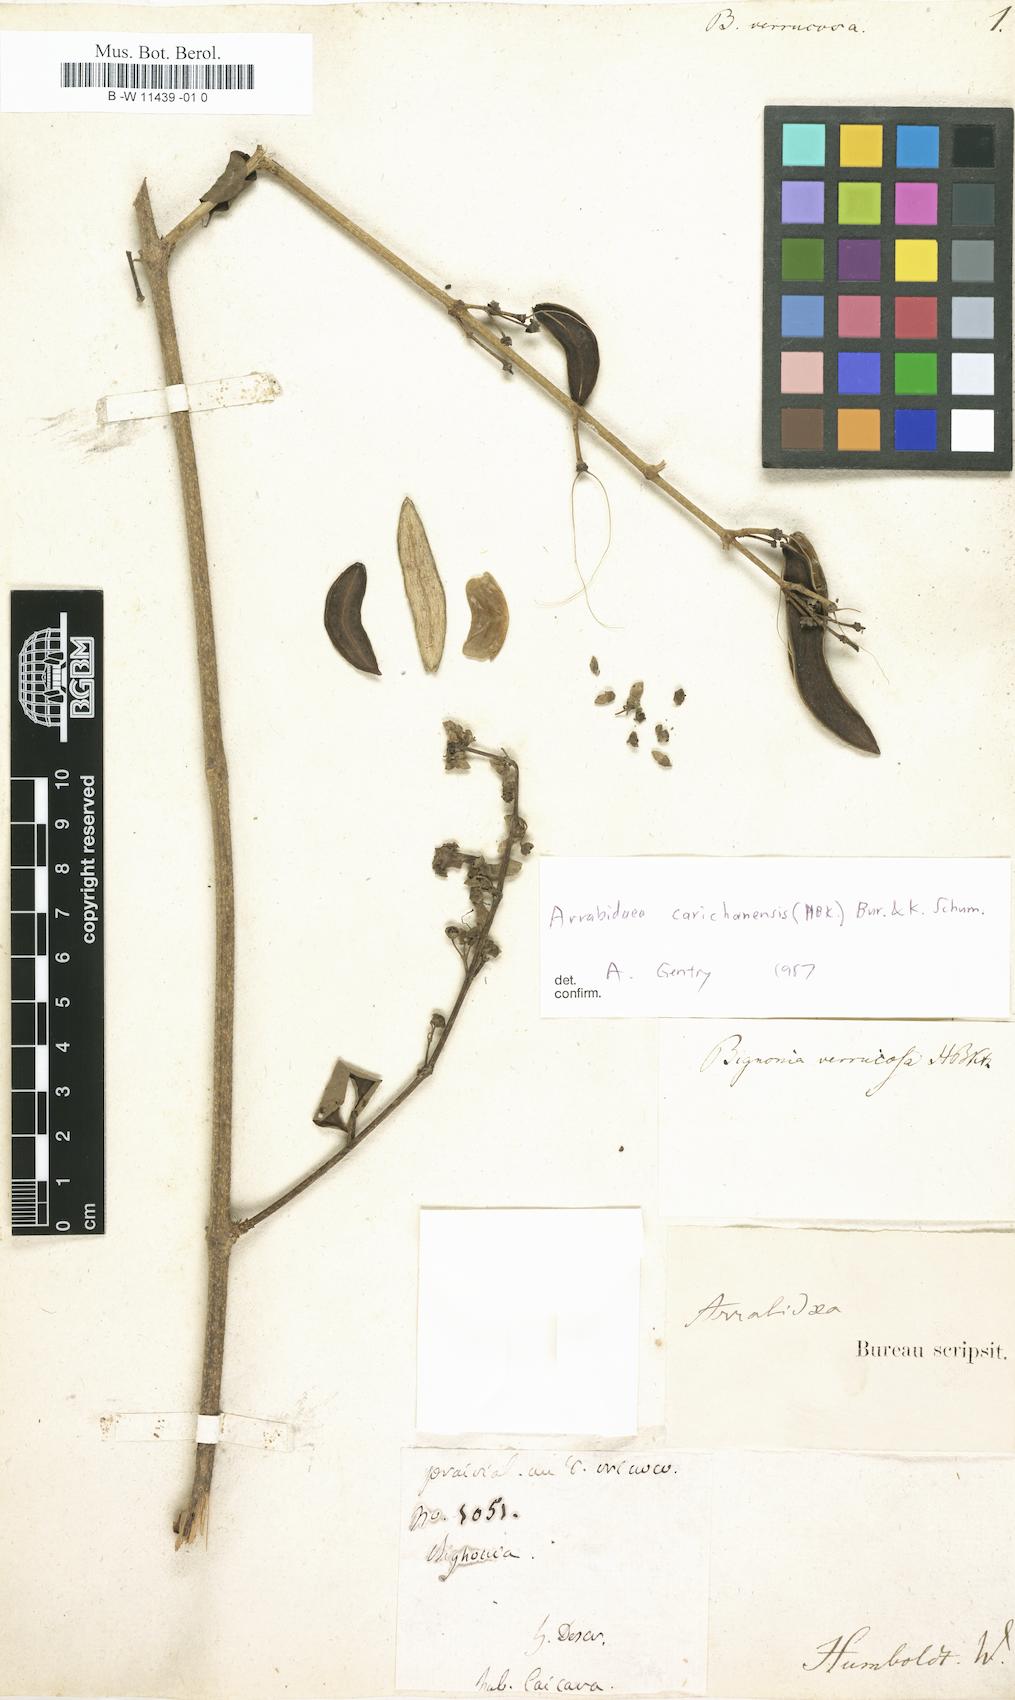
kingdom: Plantae
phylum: Tracheophyta
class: Magnoliopsida
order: Lamiales
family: Bignoniaceae
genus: Fridericia
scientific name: Fridericia carichanensis
